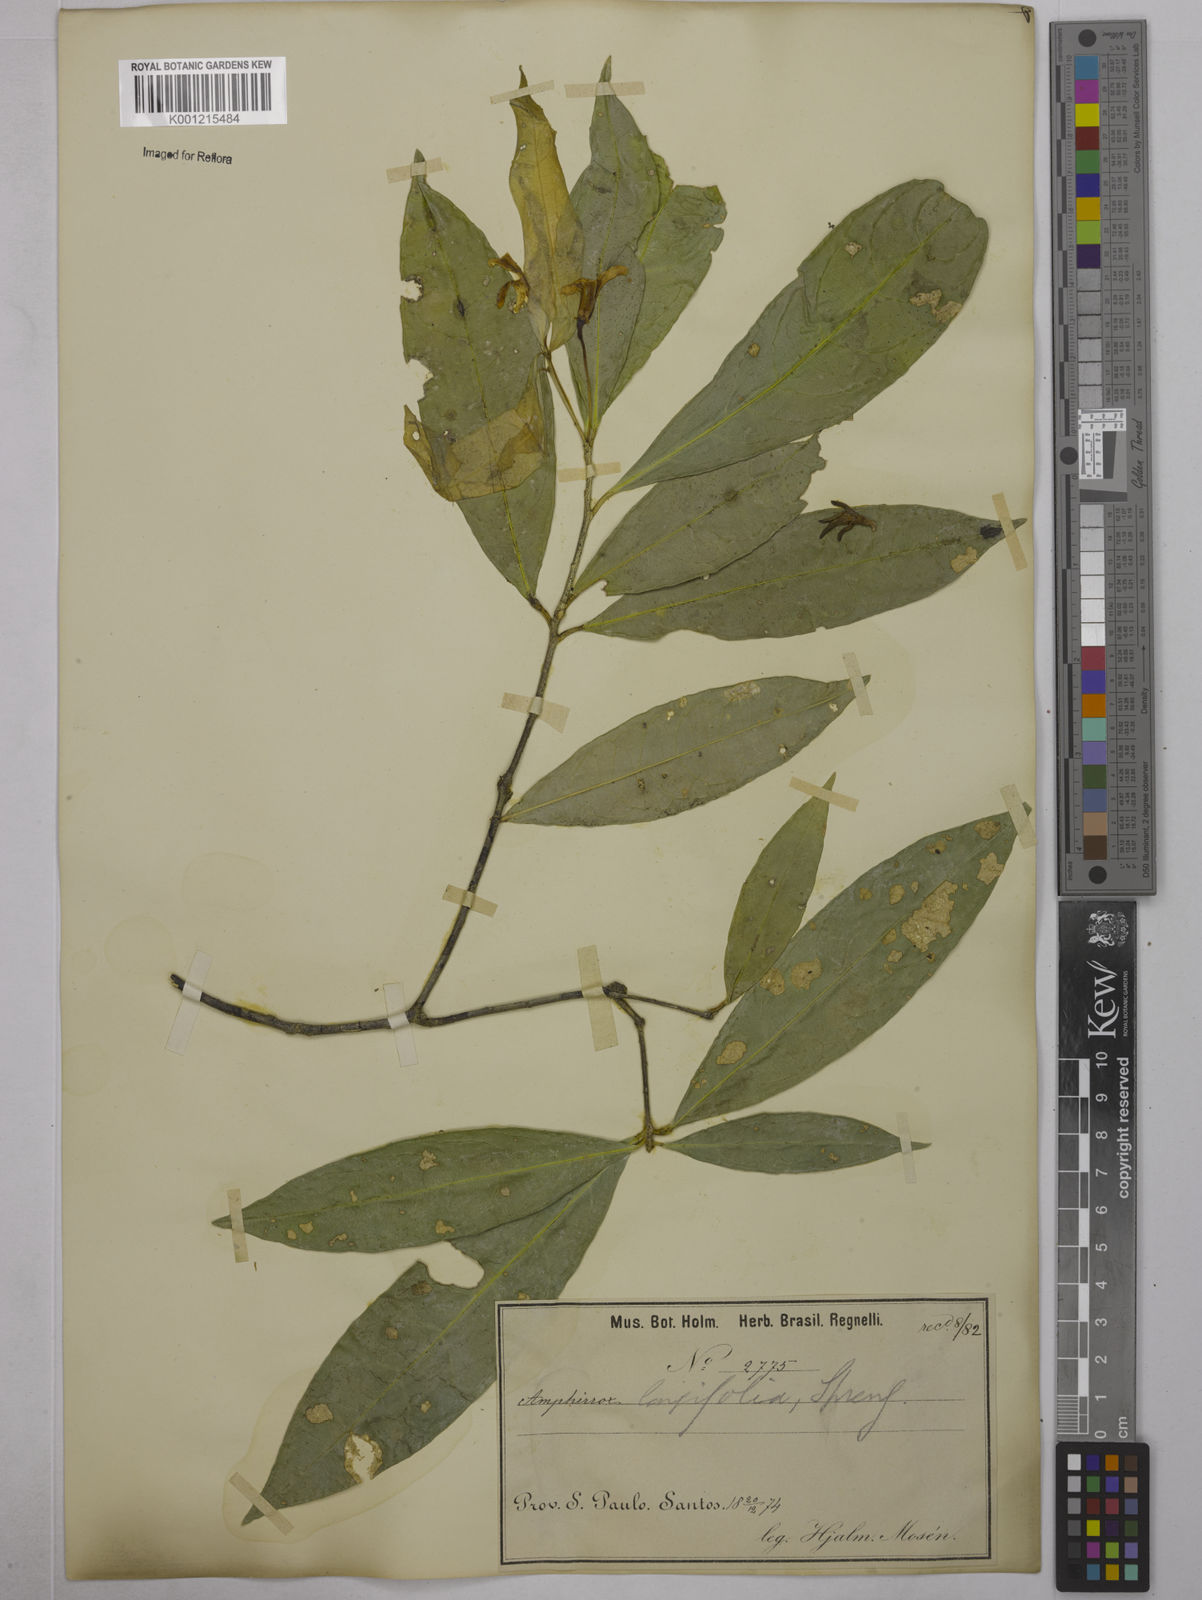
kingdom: Plantae
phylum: Tracheophyta
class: Magnoliopsida
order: Malpighiales
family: Violaceae
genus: Amphirrhox
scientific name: Amphirrhox longifolia
